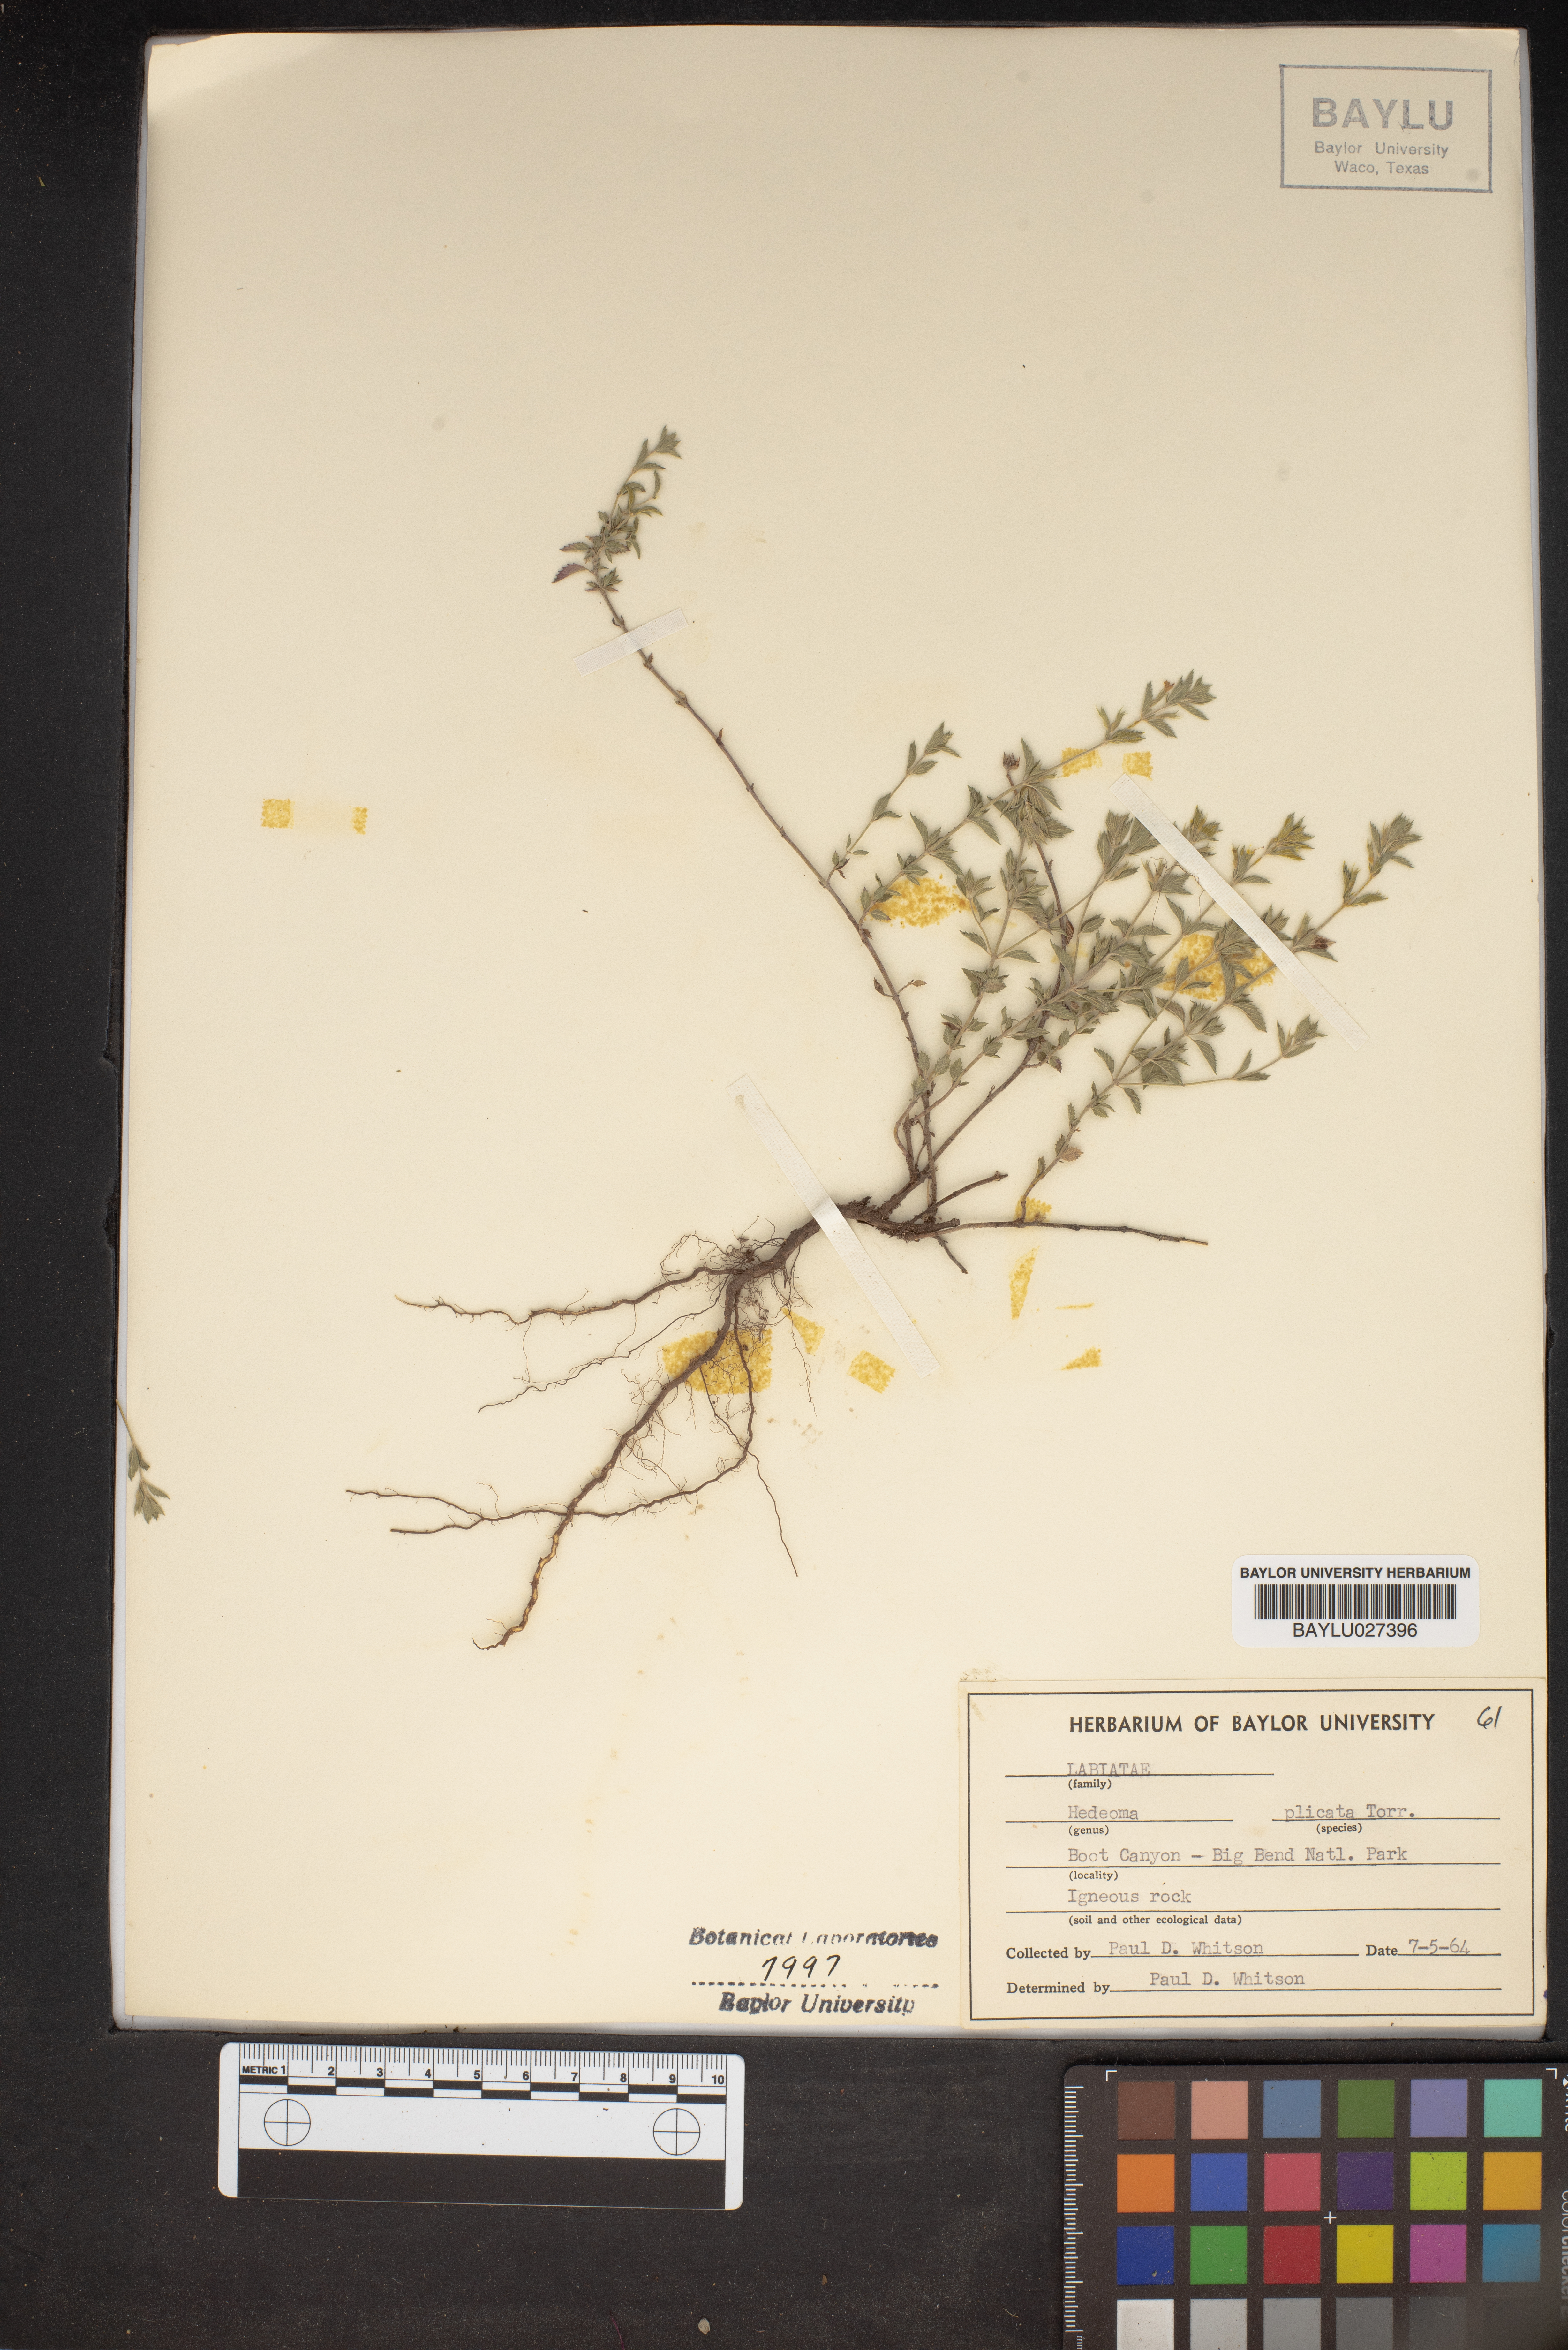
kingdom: Plantae
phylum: Tracheophyta
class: Magnoliopsida
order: Lamiales
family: Lamiaceae
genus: Hedeoma
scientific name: Hedeoma plicata
